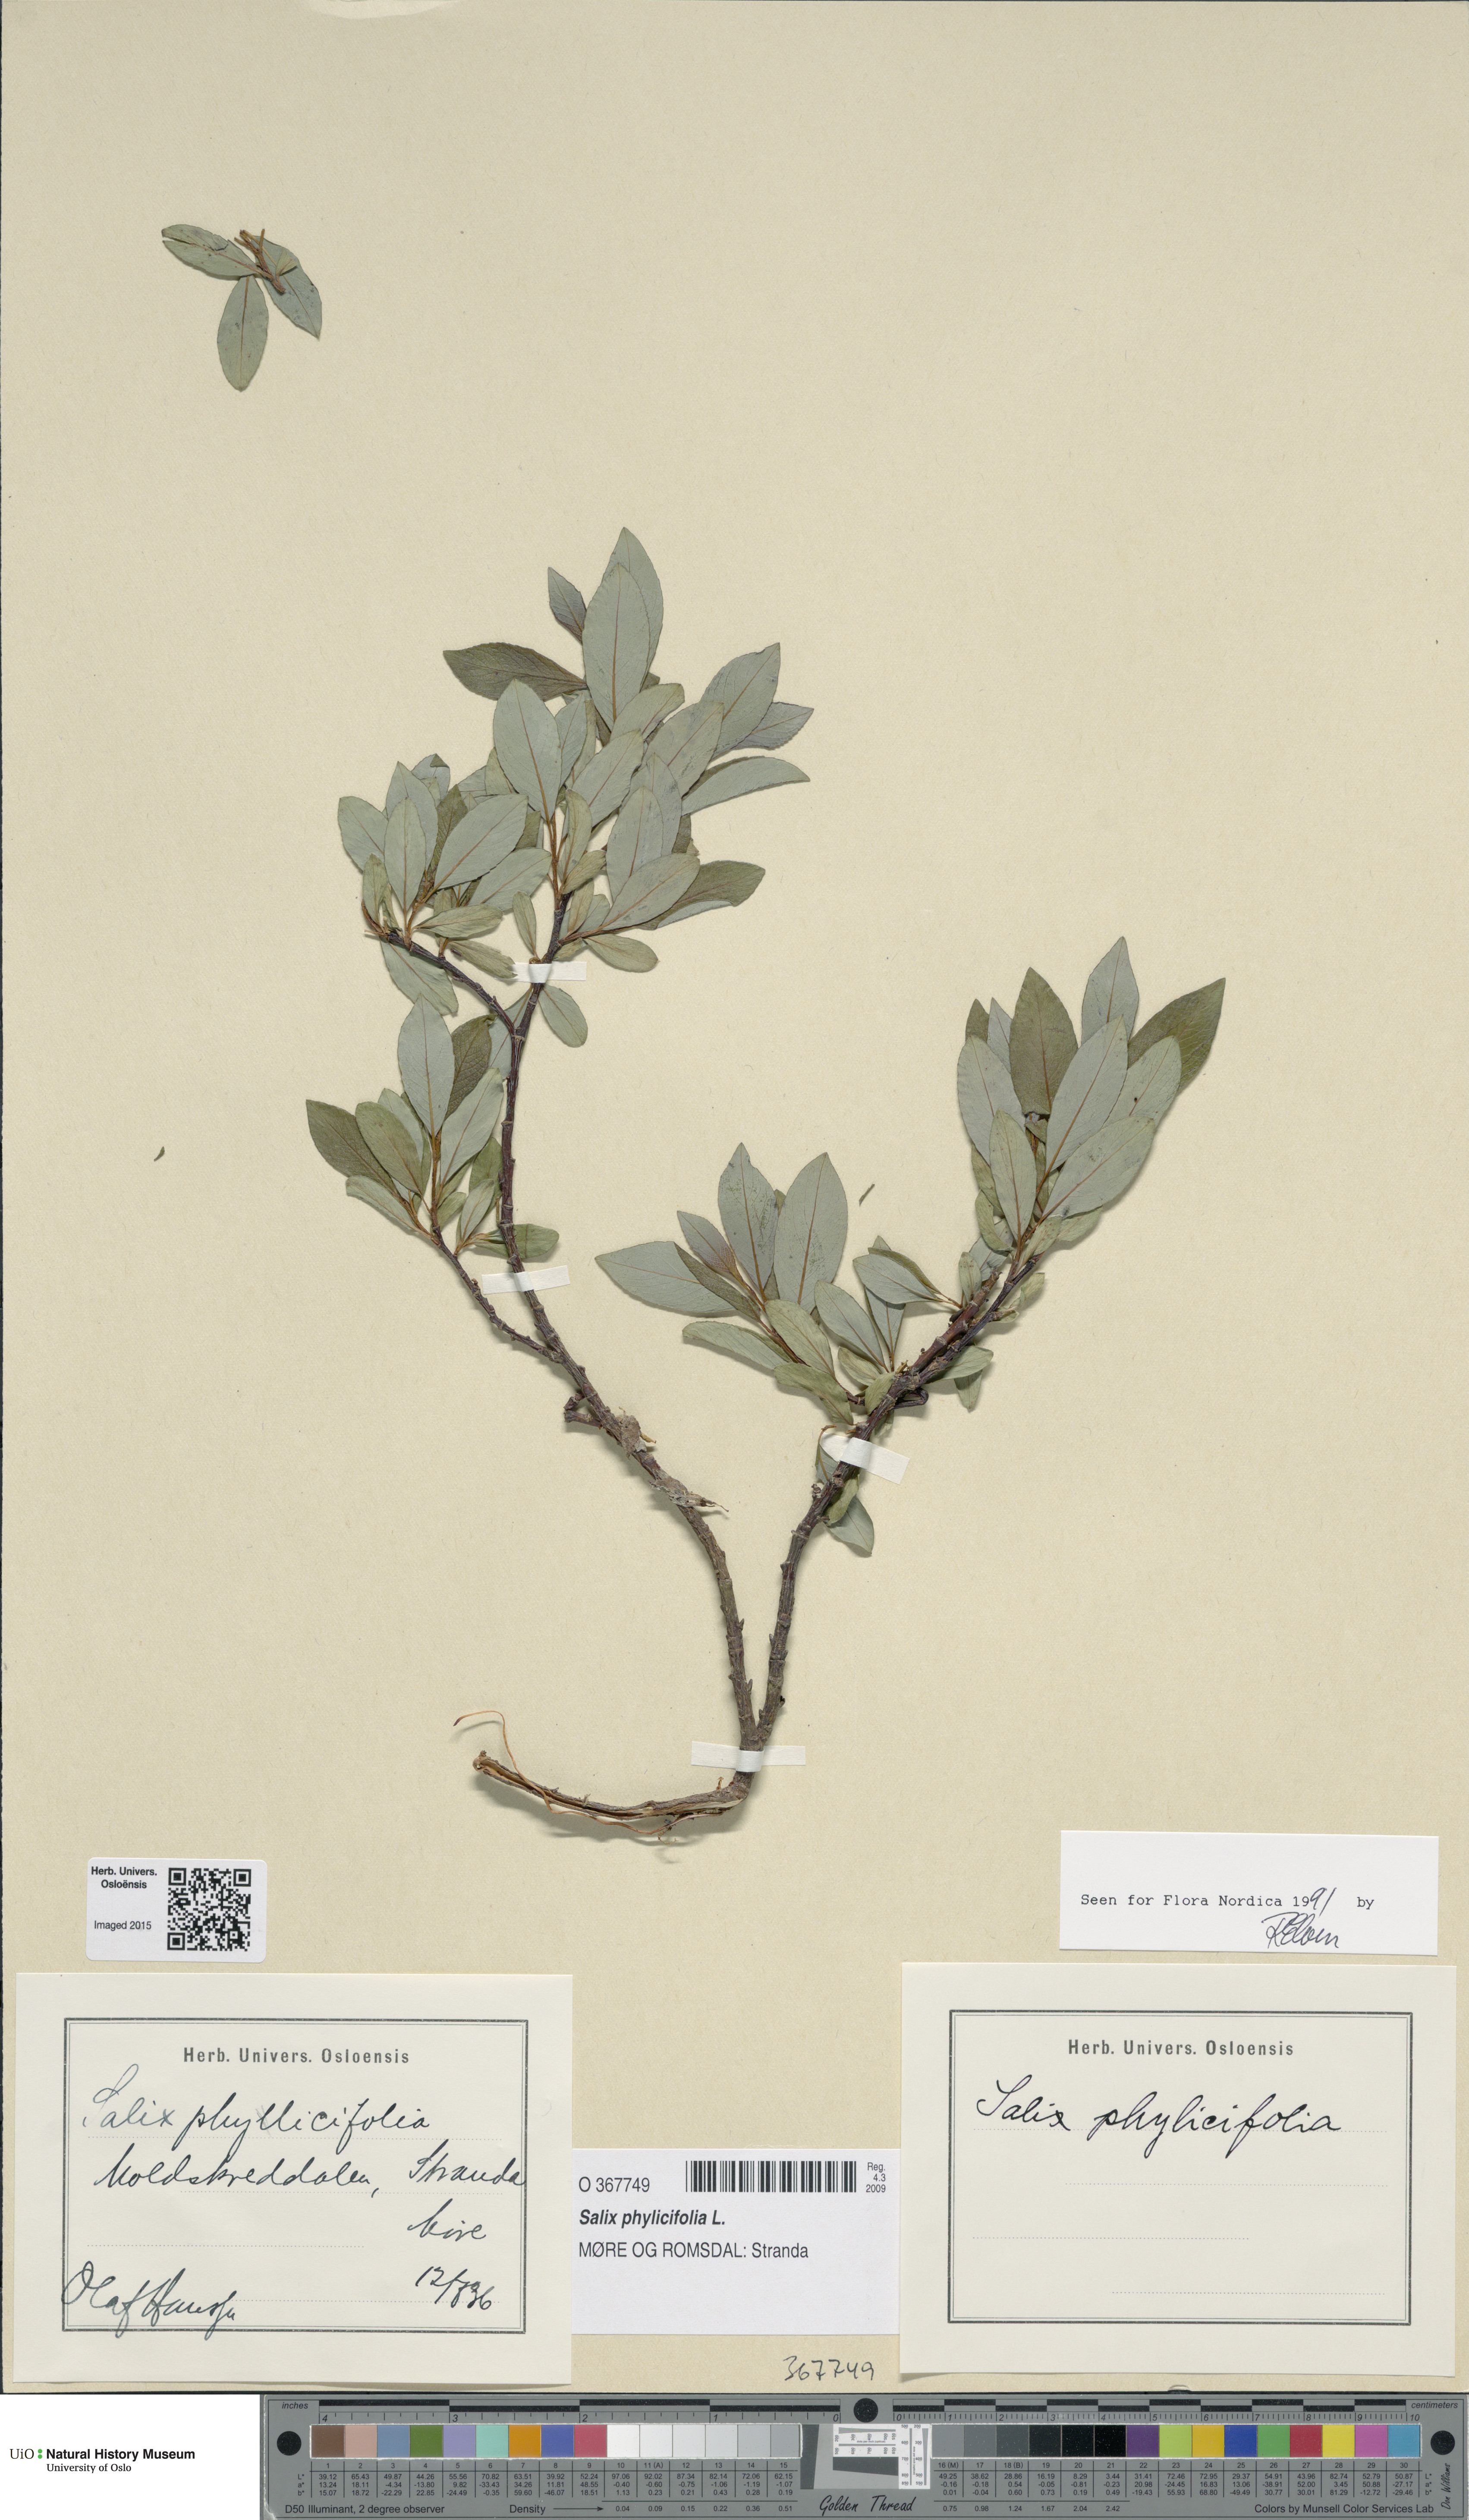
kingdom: Plantae
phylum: Tracheophyta
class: Magnoliopsida
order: Malpighiales
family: Salicaceae
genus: Salix
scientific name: Salix phylicifolia
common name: Tea-leaved willow
